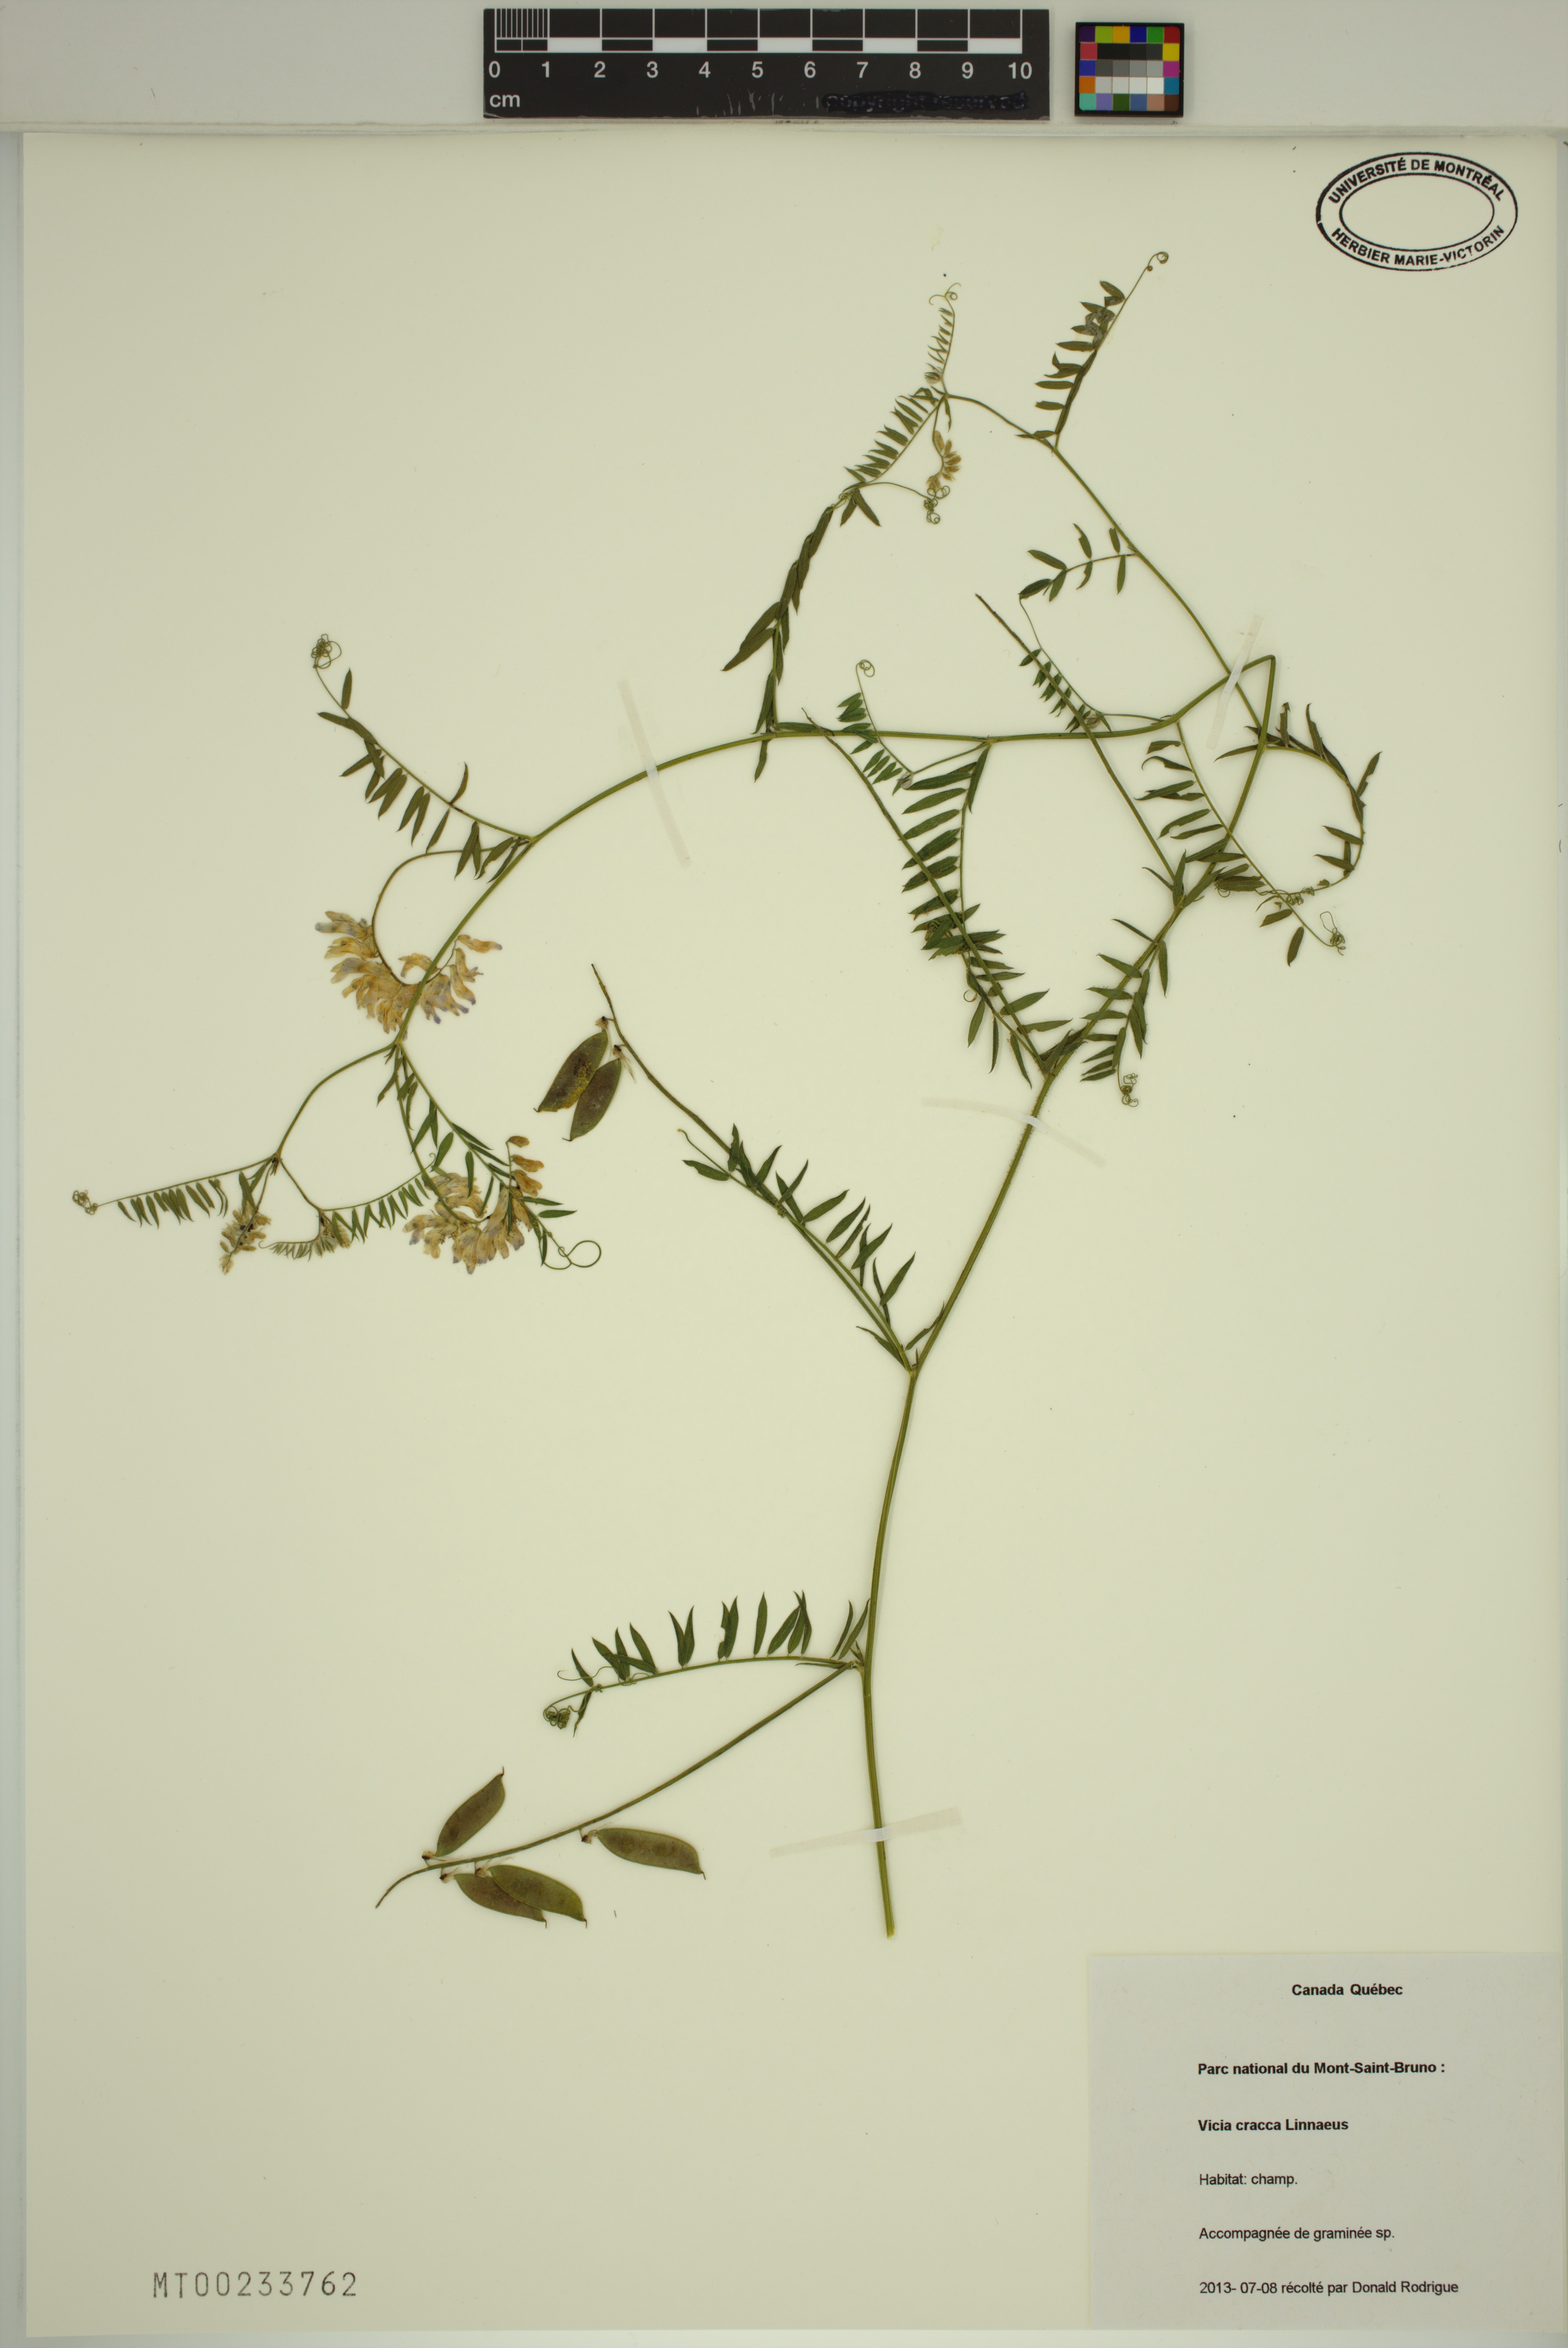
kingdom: Plantae
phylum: Tracheophyta
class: Magnoliopsida
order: Fabales
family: Fabaceae
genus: Vicia
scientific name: Vicia cracca
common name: Bird vetch
